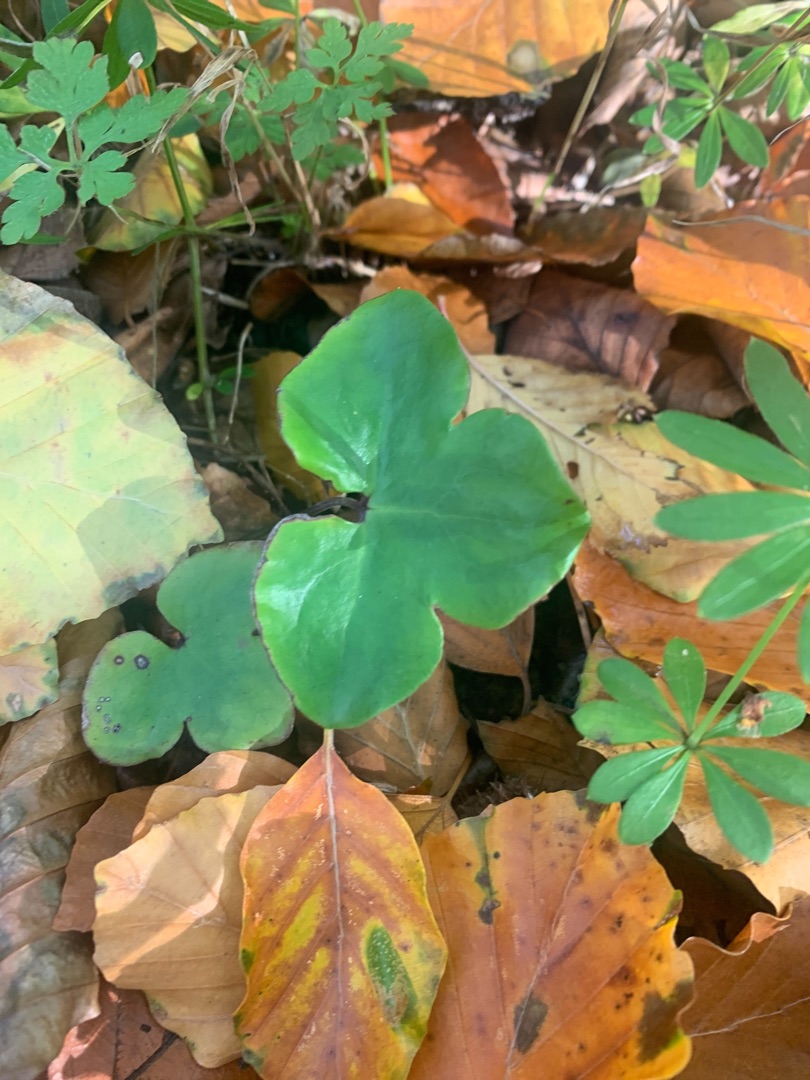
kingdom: Plantae
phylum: Tracheophyta
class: Magnoliopsida
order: Ranunculales
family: Ranunculaceae
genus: Hepatica
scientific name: Hepatica nobilis
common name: Blå anemone
